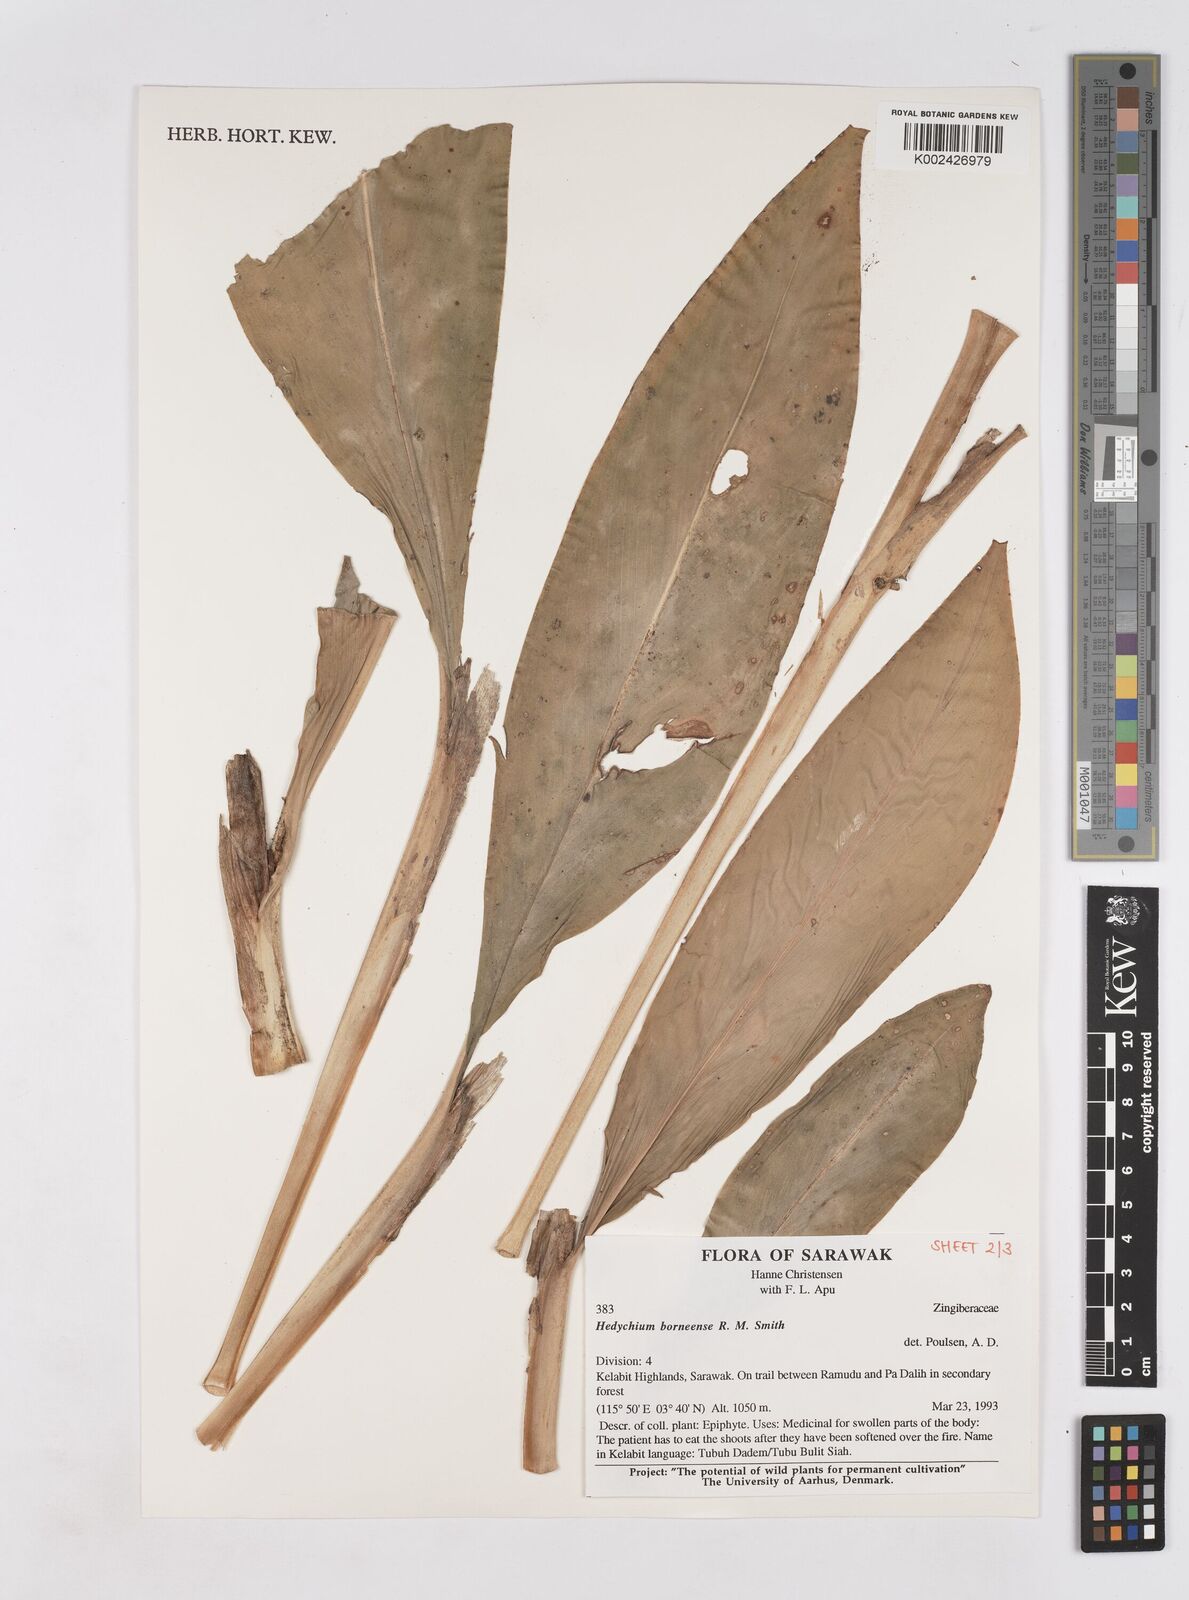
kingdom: Plantae
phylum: Tracheophyta
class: Liliopsida
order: Zingiberales
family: Zingiberaceae
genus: Hedychium
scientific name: Hedychium borneense
